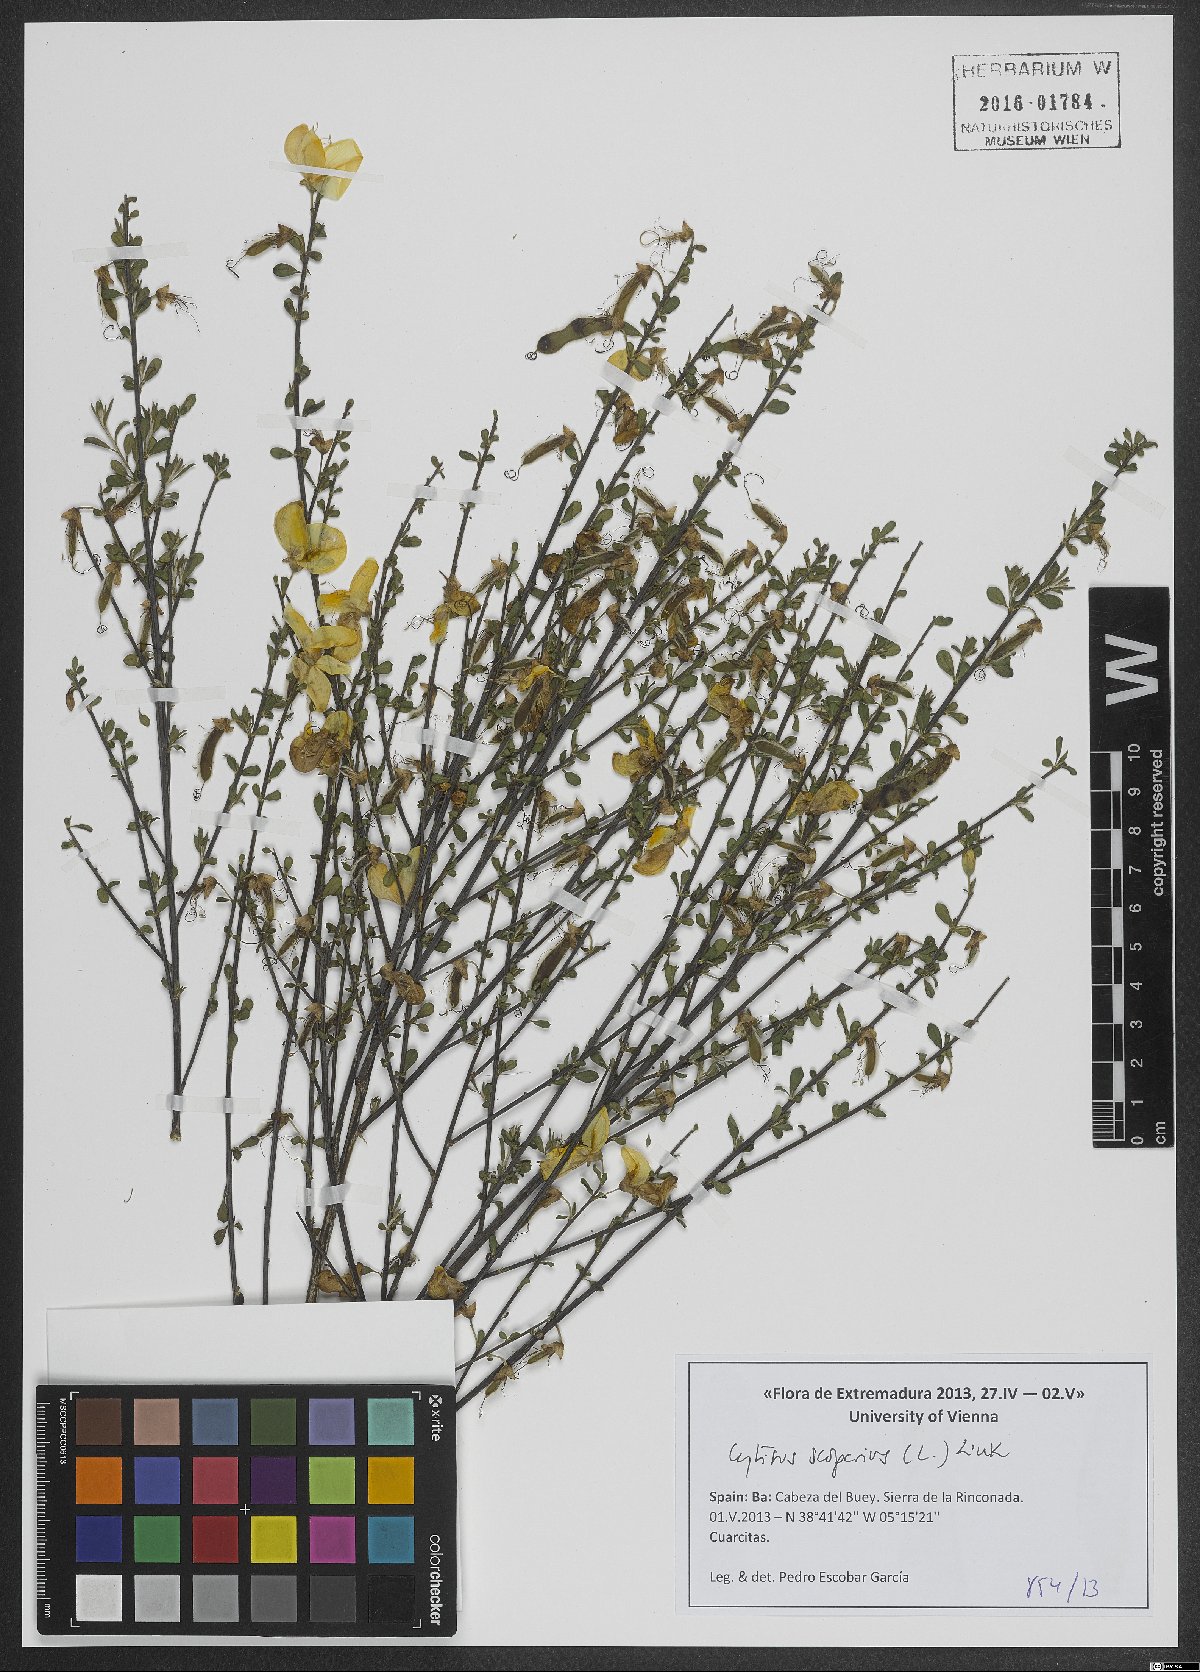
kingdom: Plantae
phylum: Tracheophyta
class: Magnoliopsida
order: Fabales
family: Fabaceae
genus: Cytisus
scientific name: Cytisus scoparius
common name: Scotch broom
